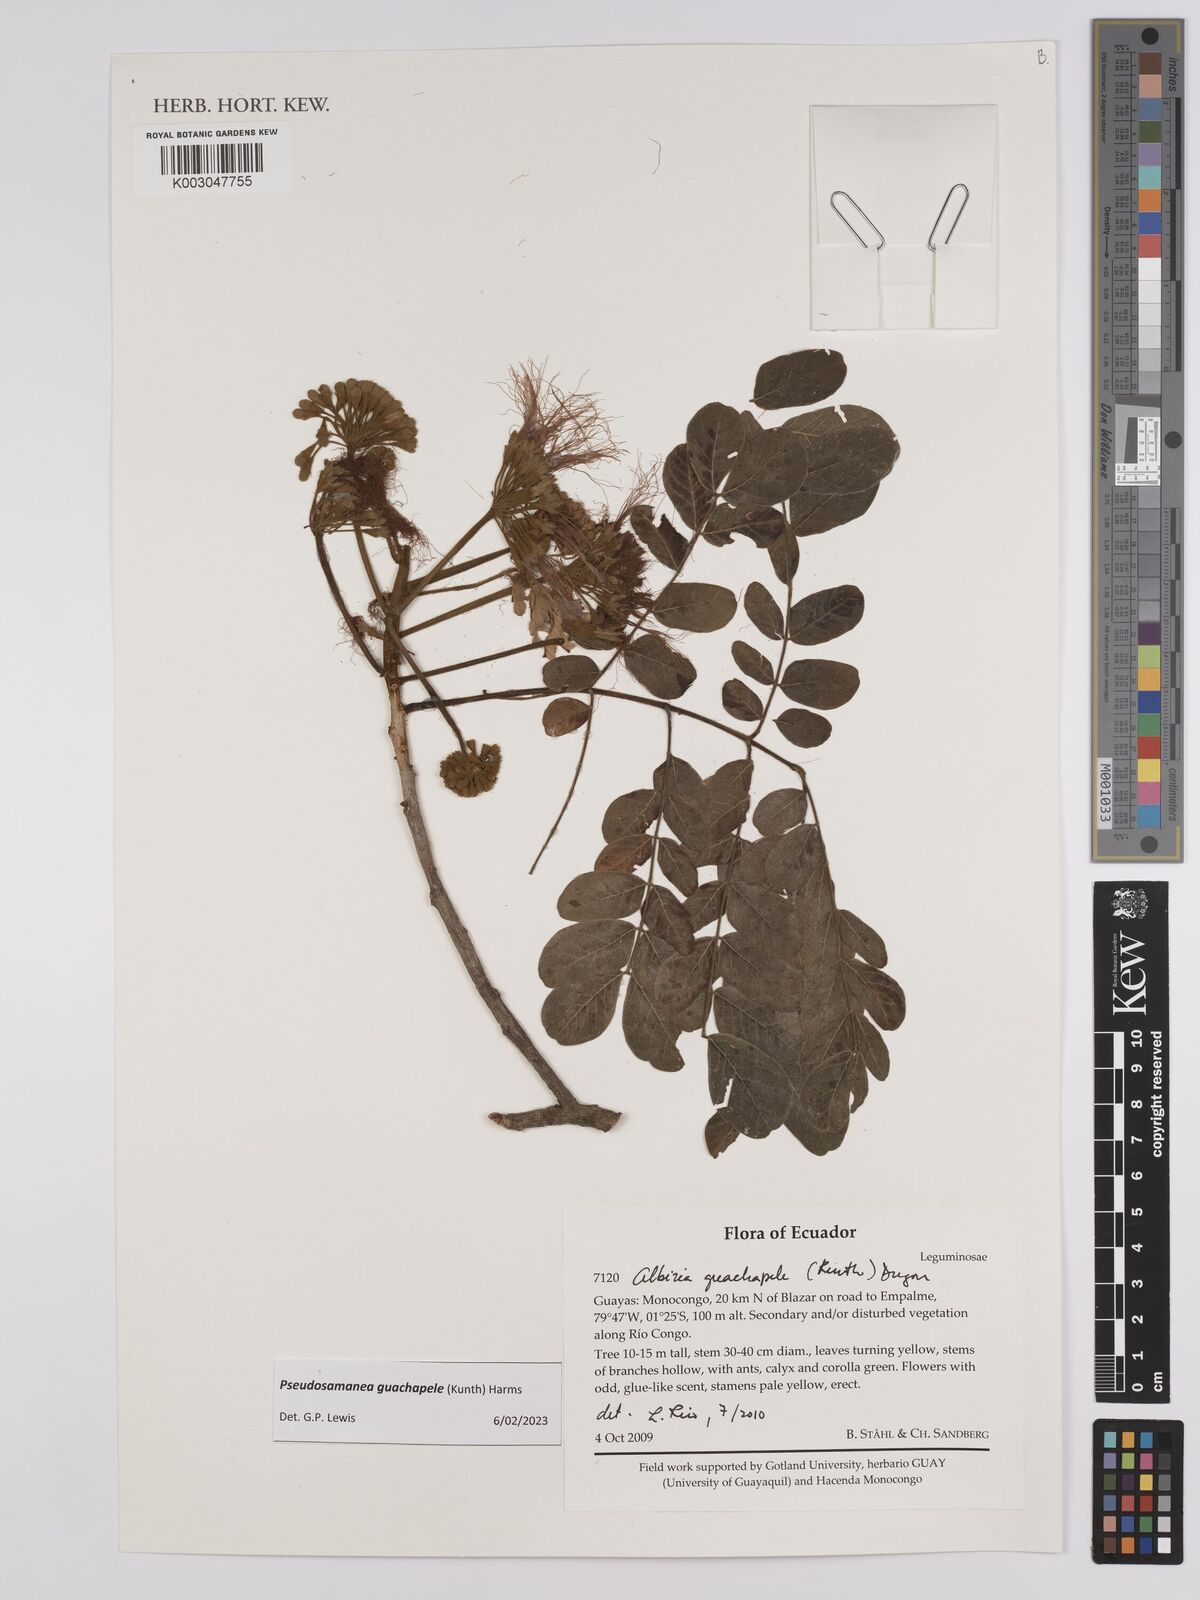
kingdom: Plantae
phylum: Tracheophyta
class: Magnoliopsida
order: Fabales
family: Fabaceae
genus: Pseudosamanea
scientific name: Pseudosamanea guachapele
